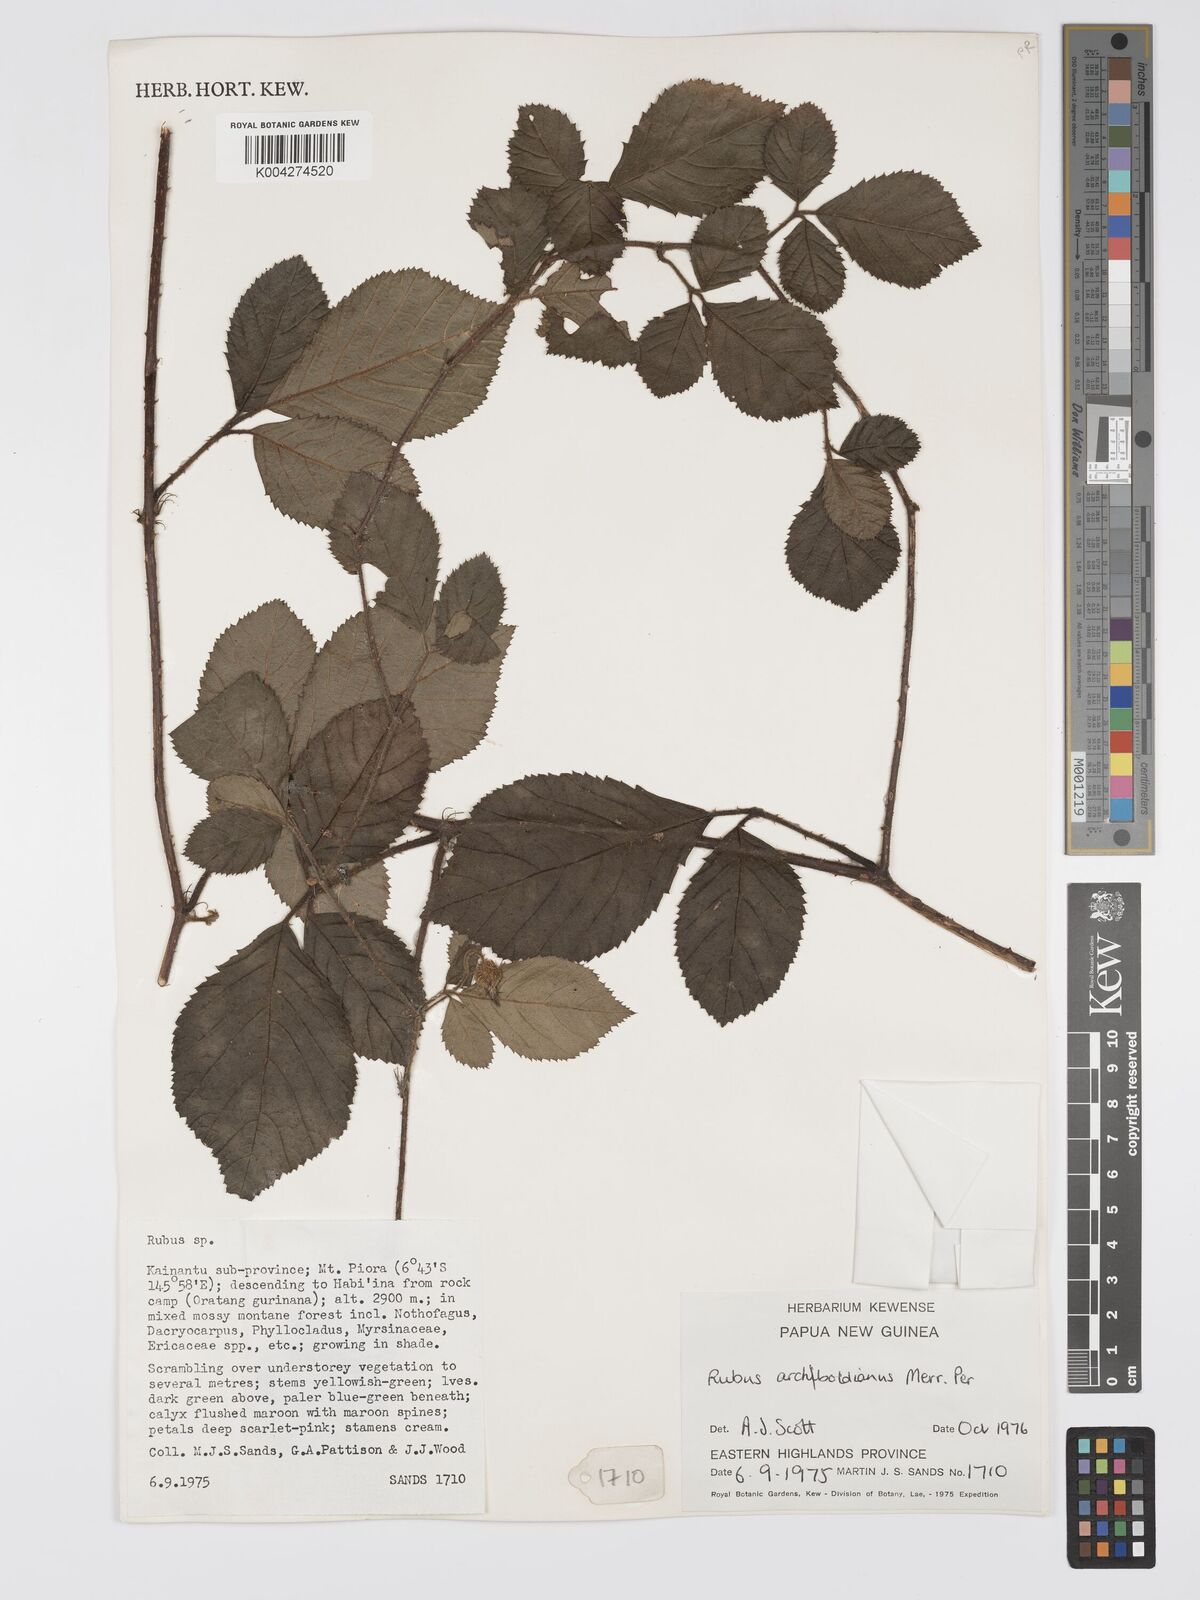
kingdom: Plantae
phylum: Tracheophyta
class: Magnoliopsida
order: Rosales
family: Rosaceae
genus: Rubus
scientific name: Rubus archboldianus
